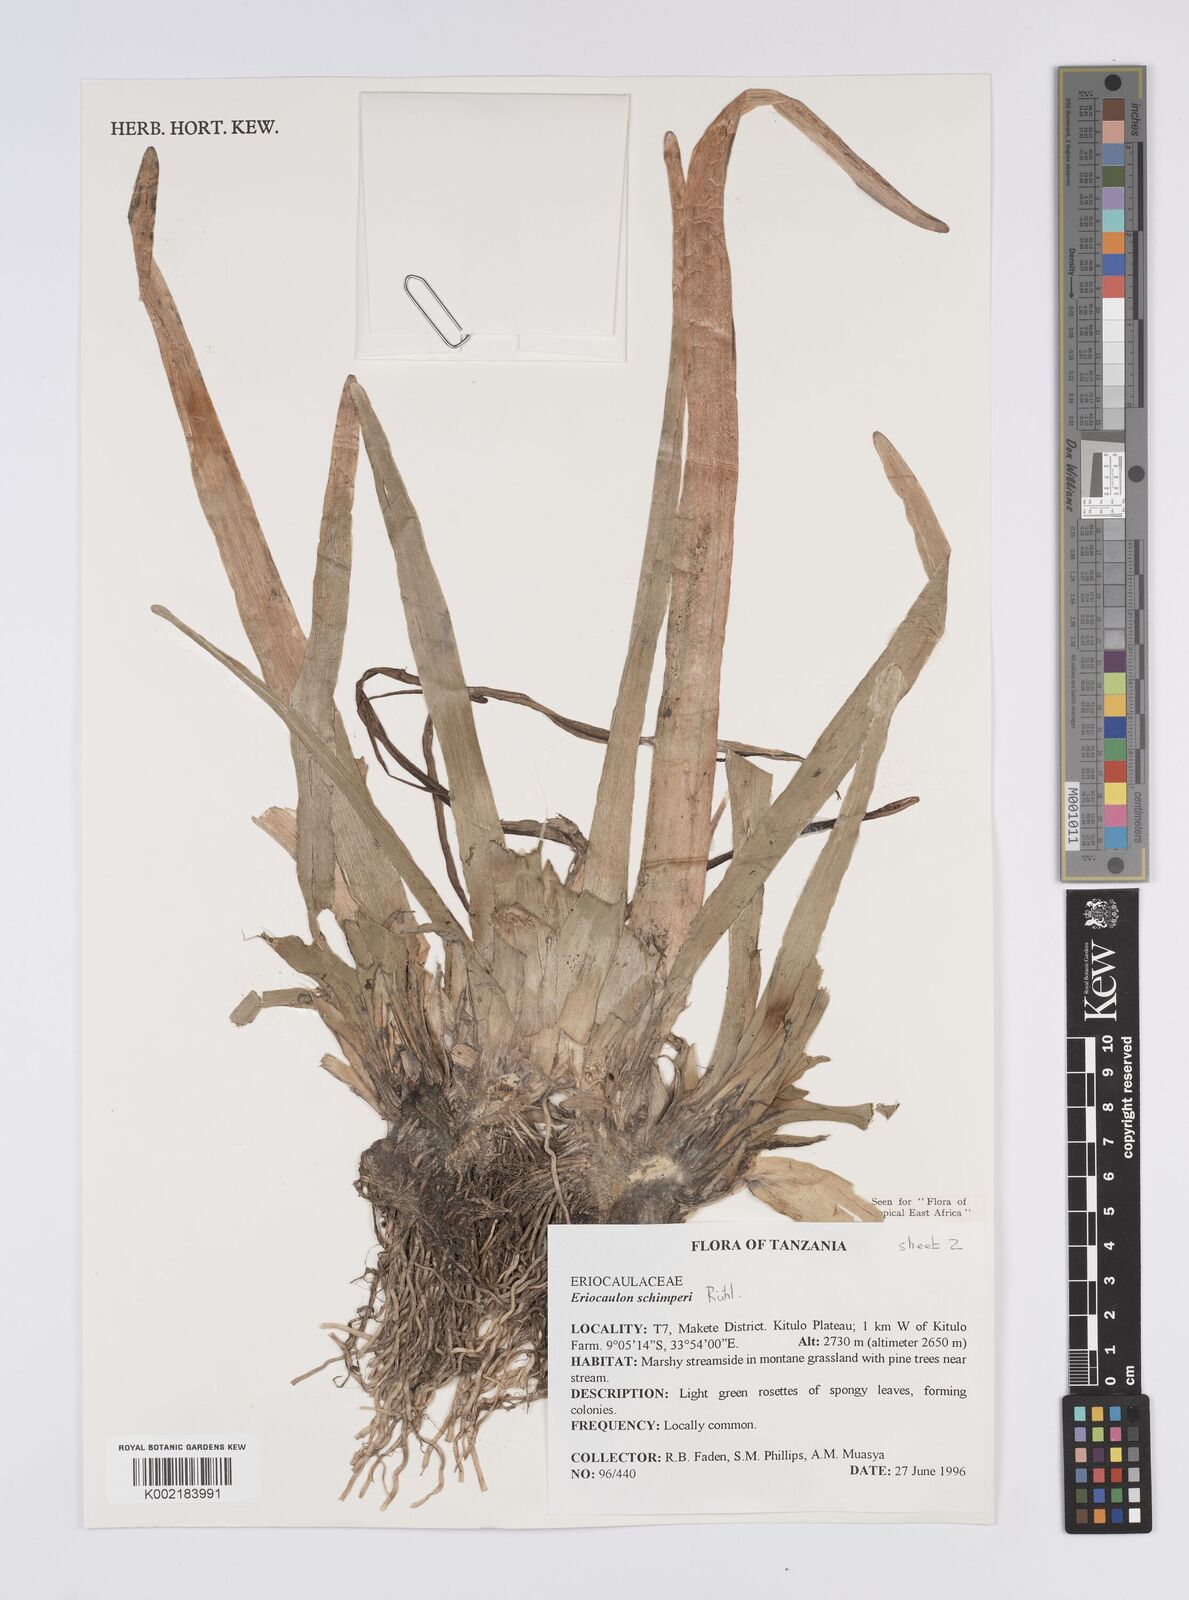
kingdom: Plantae
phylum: Tracheophyta
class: Liliopsida
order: Poales
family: Eriocaulaceae
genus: Eriocaulon
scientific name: Eriocaulon schimperi
